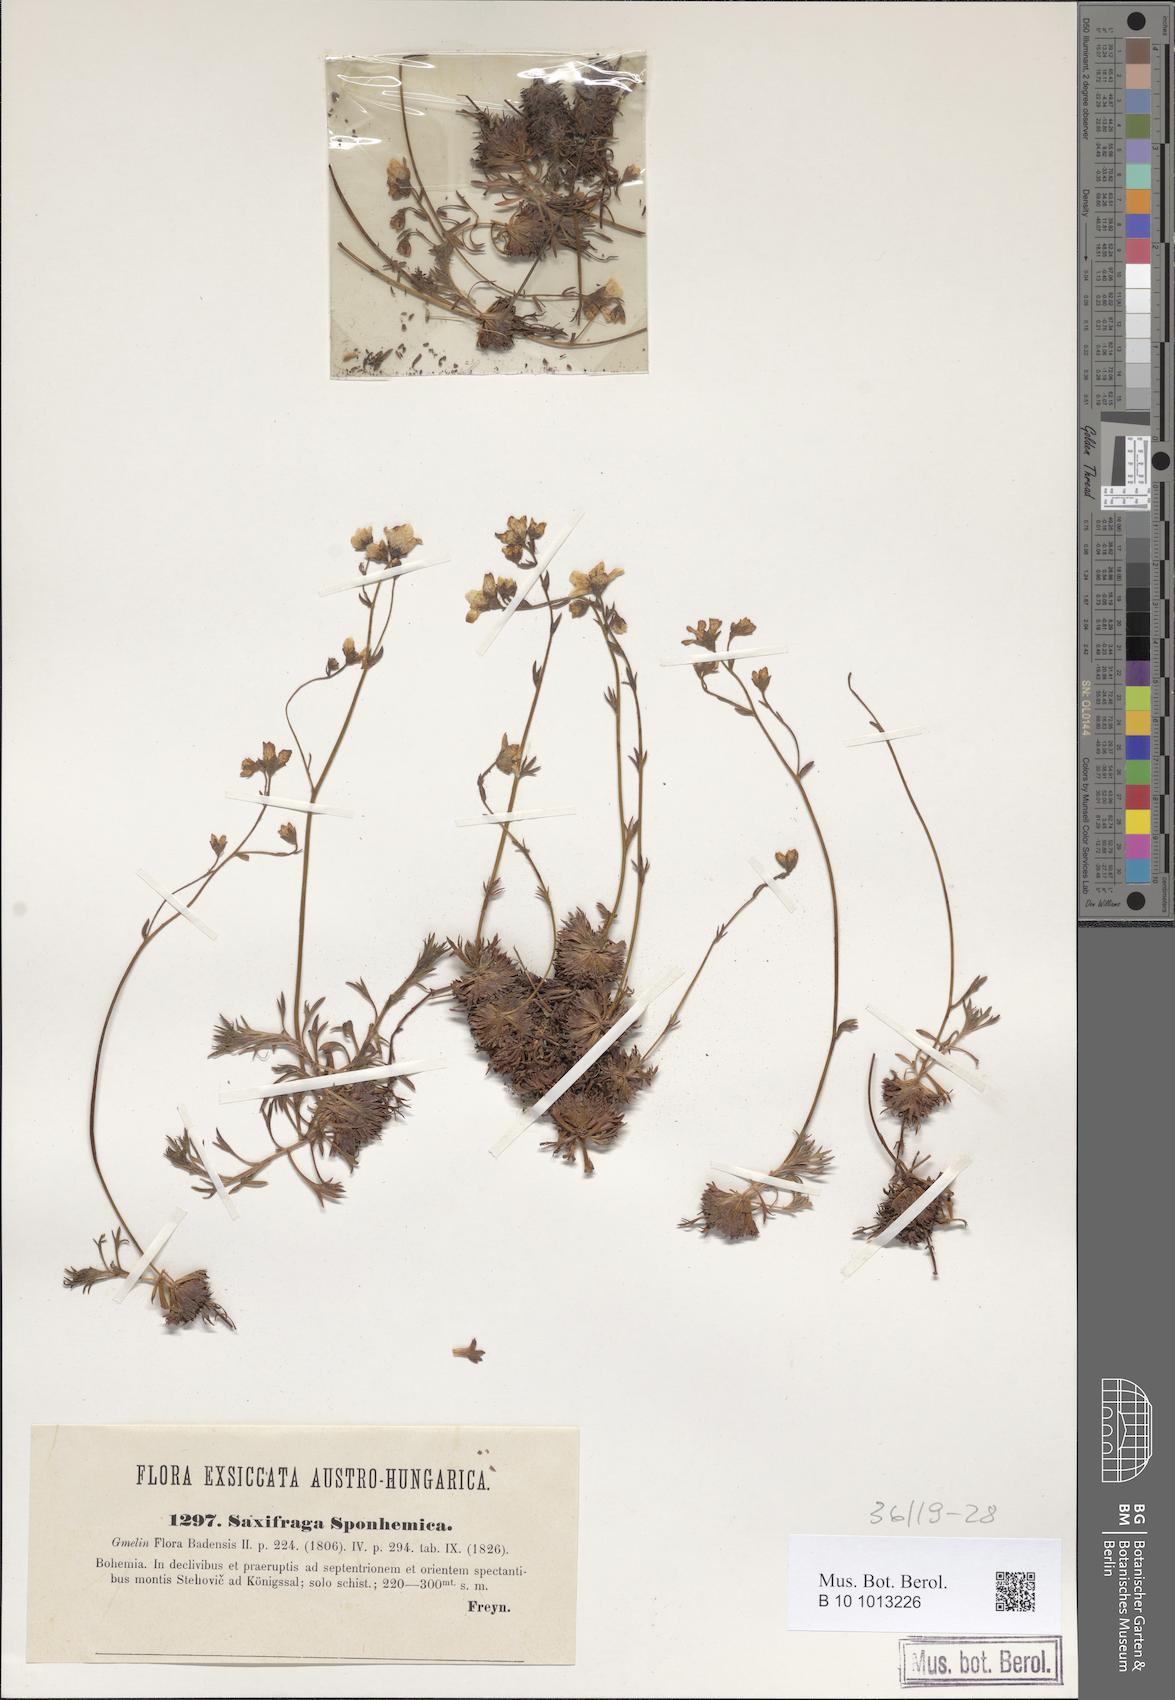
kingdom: Plantae
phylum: Tracheophyta
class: Magnoliopsida
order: Saxifragales
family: Saxifragaceae
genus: Saxifraga
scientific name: Saxifraga rosacea
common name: Irish saxifrage
